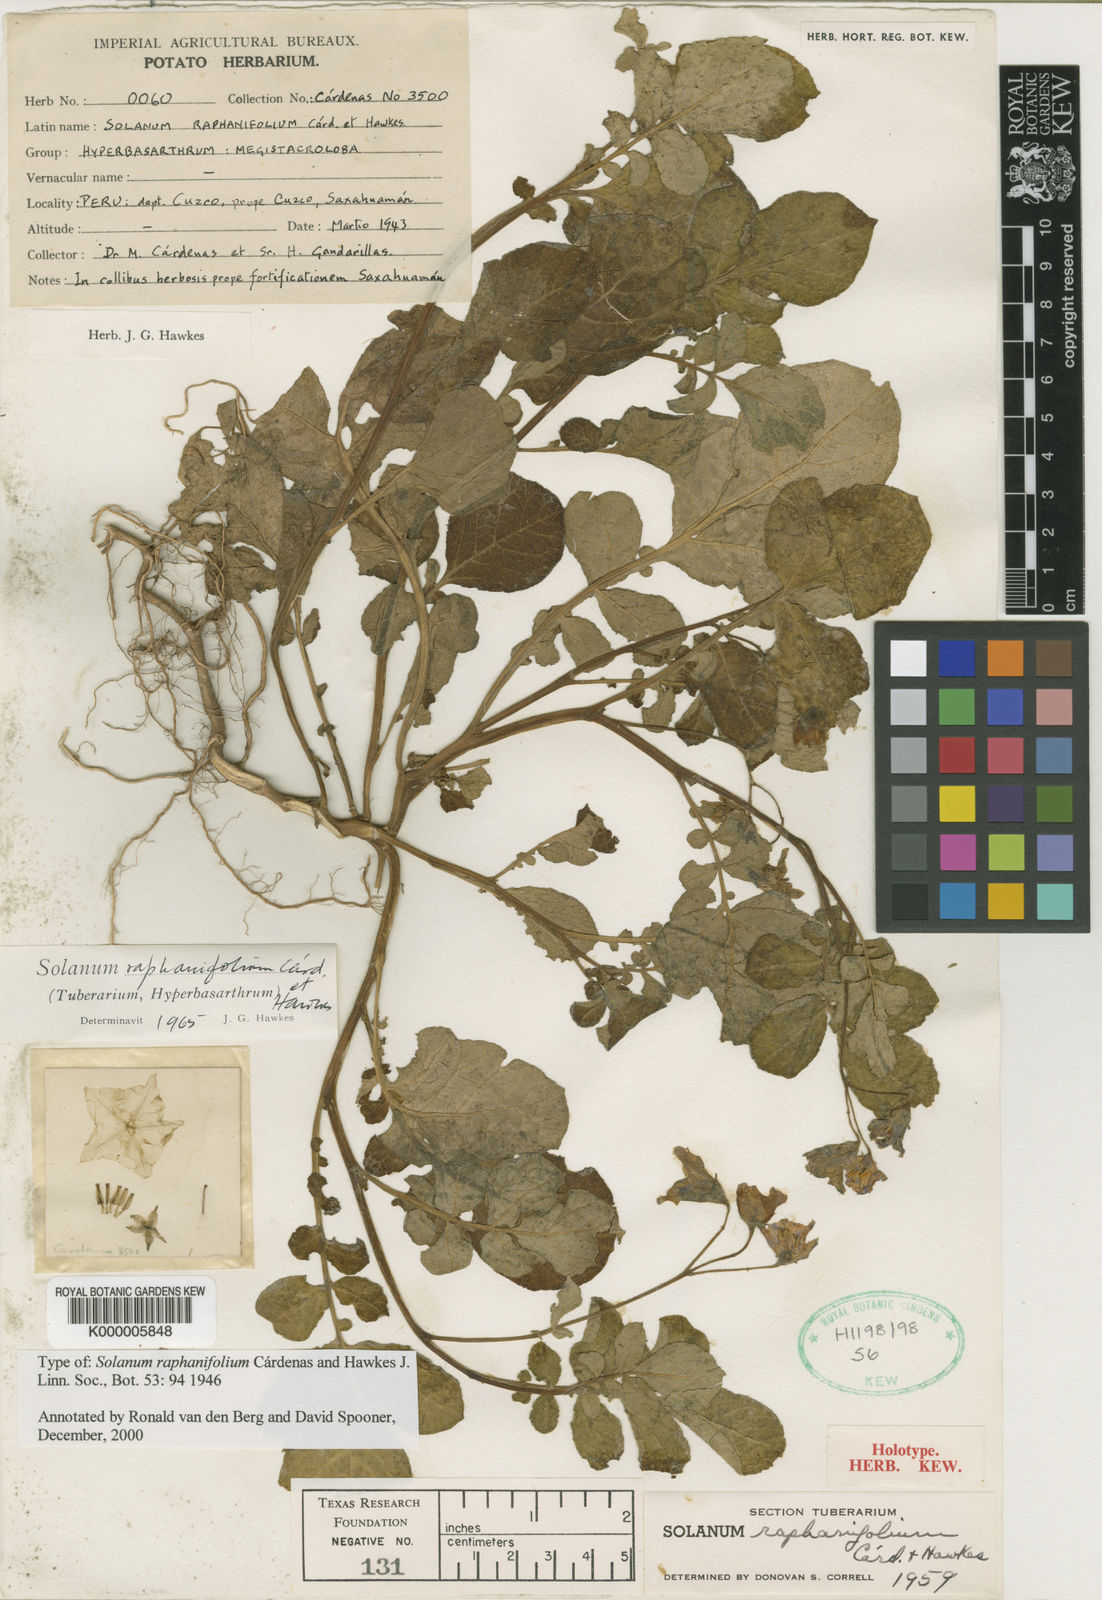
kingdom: Plantae
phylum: Tracheophyta
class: Magnoliopsida
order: Solanales
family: Solanaceae
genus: Solanum
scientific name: Solanum raphanifolium
